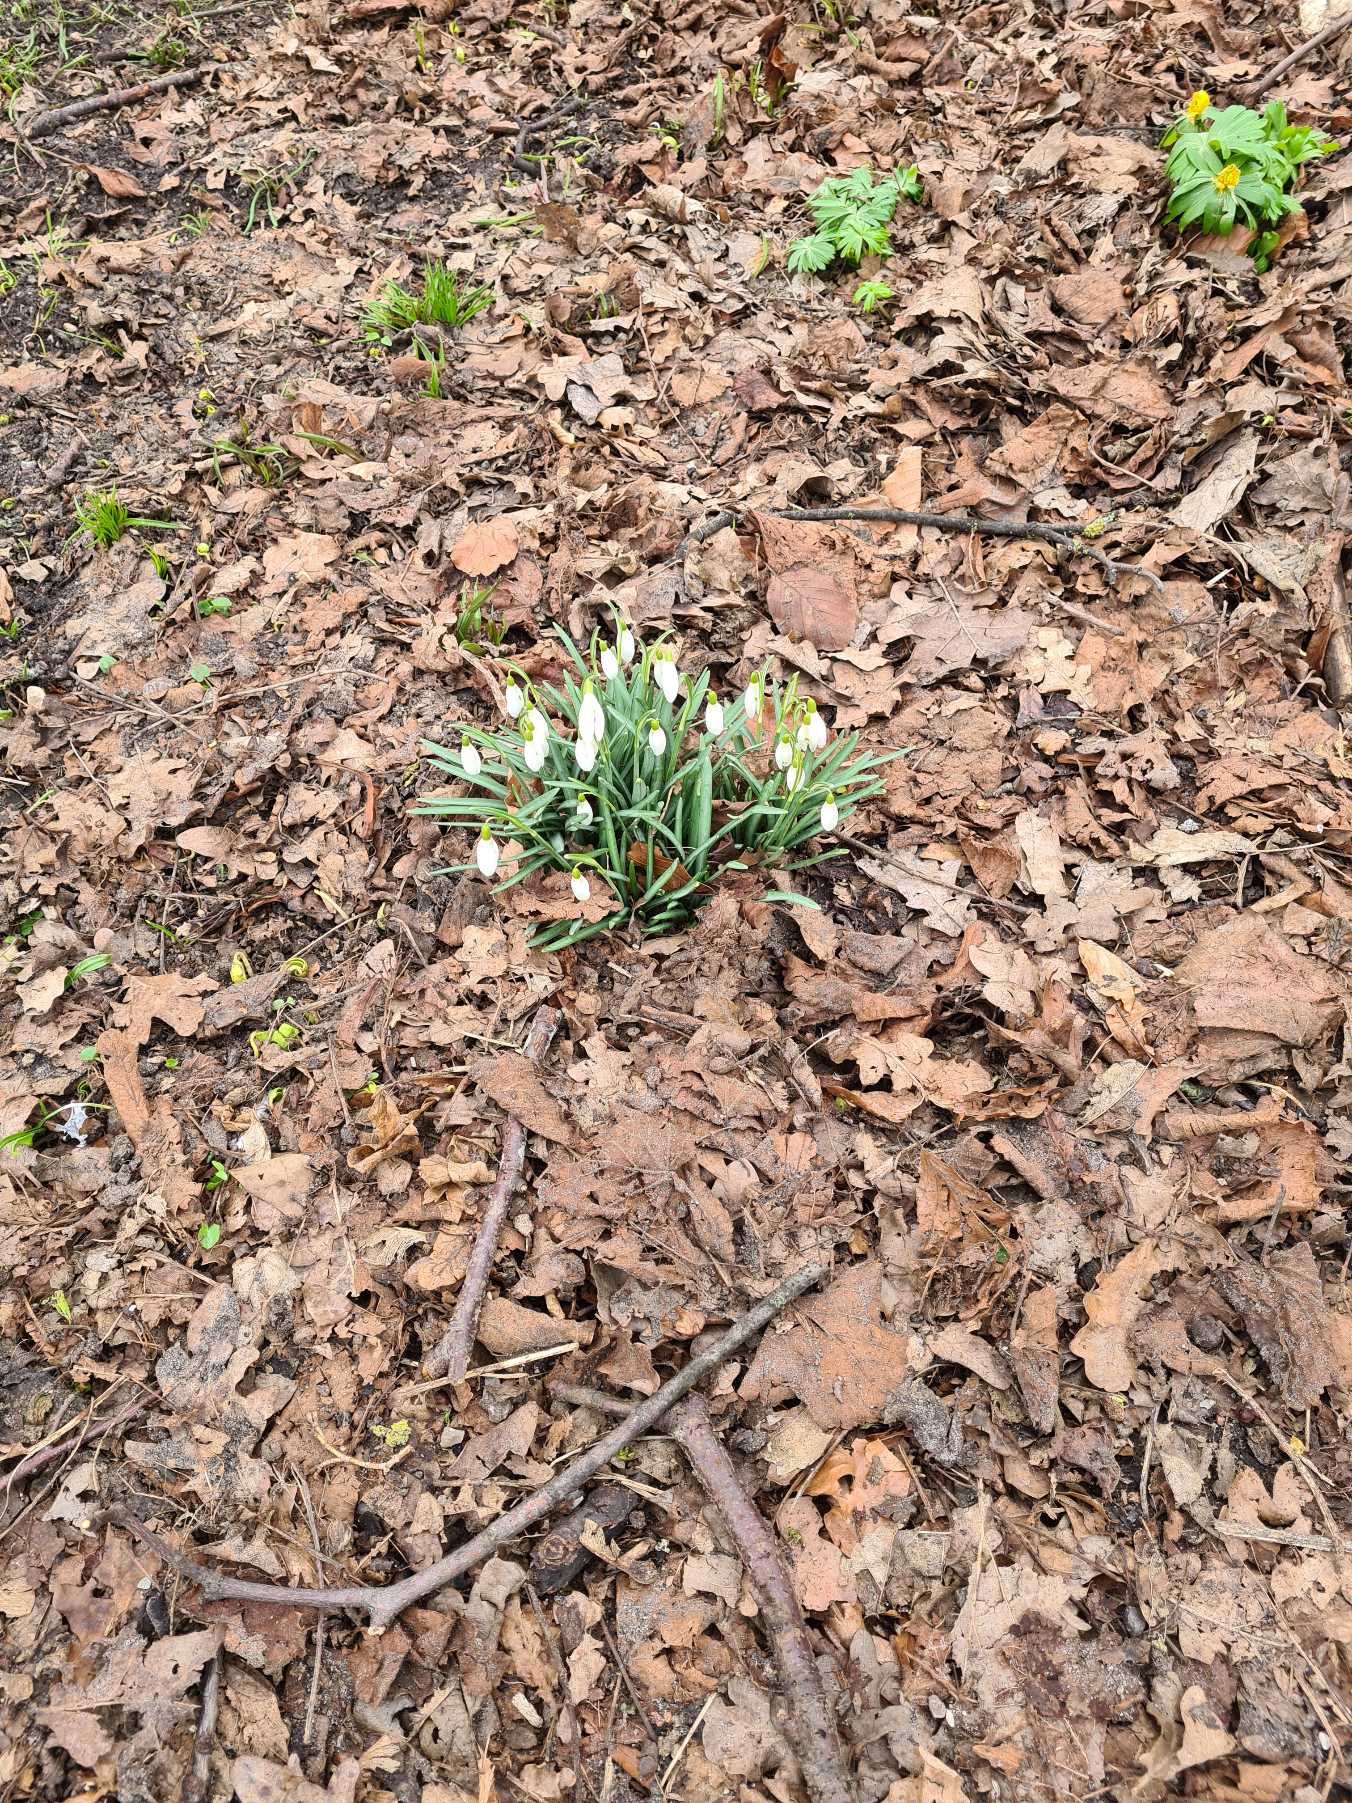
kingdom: Plantae
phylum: Tracheophyta
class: Liliopsida
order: Asparagales
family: Amaryllidaceae
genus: Galanthus
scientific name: Galanthus nivalis
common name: Vintergæk
